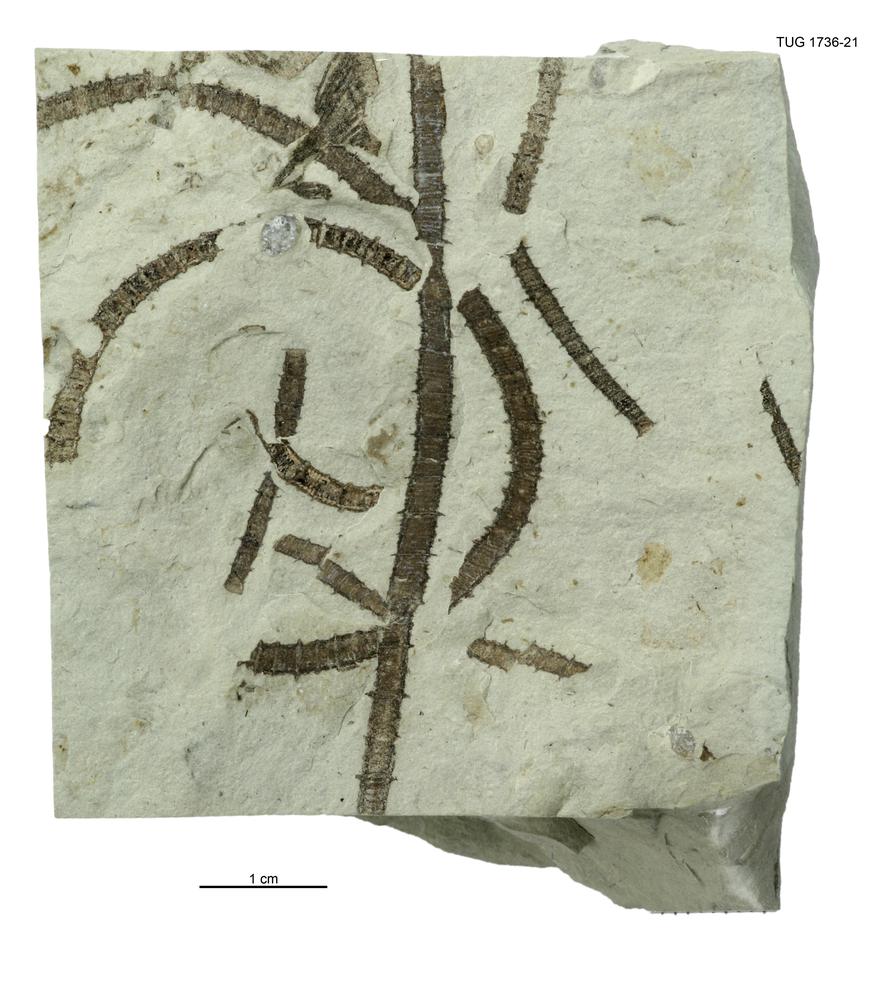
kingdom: Animalia
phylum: Echinodermata
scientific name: Echinodermata
